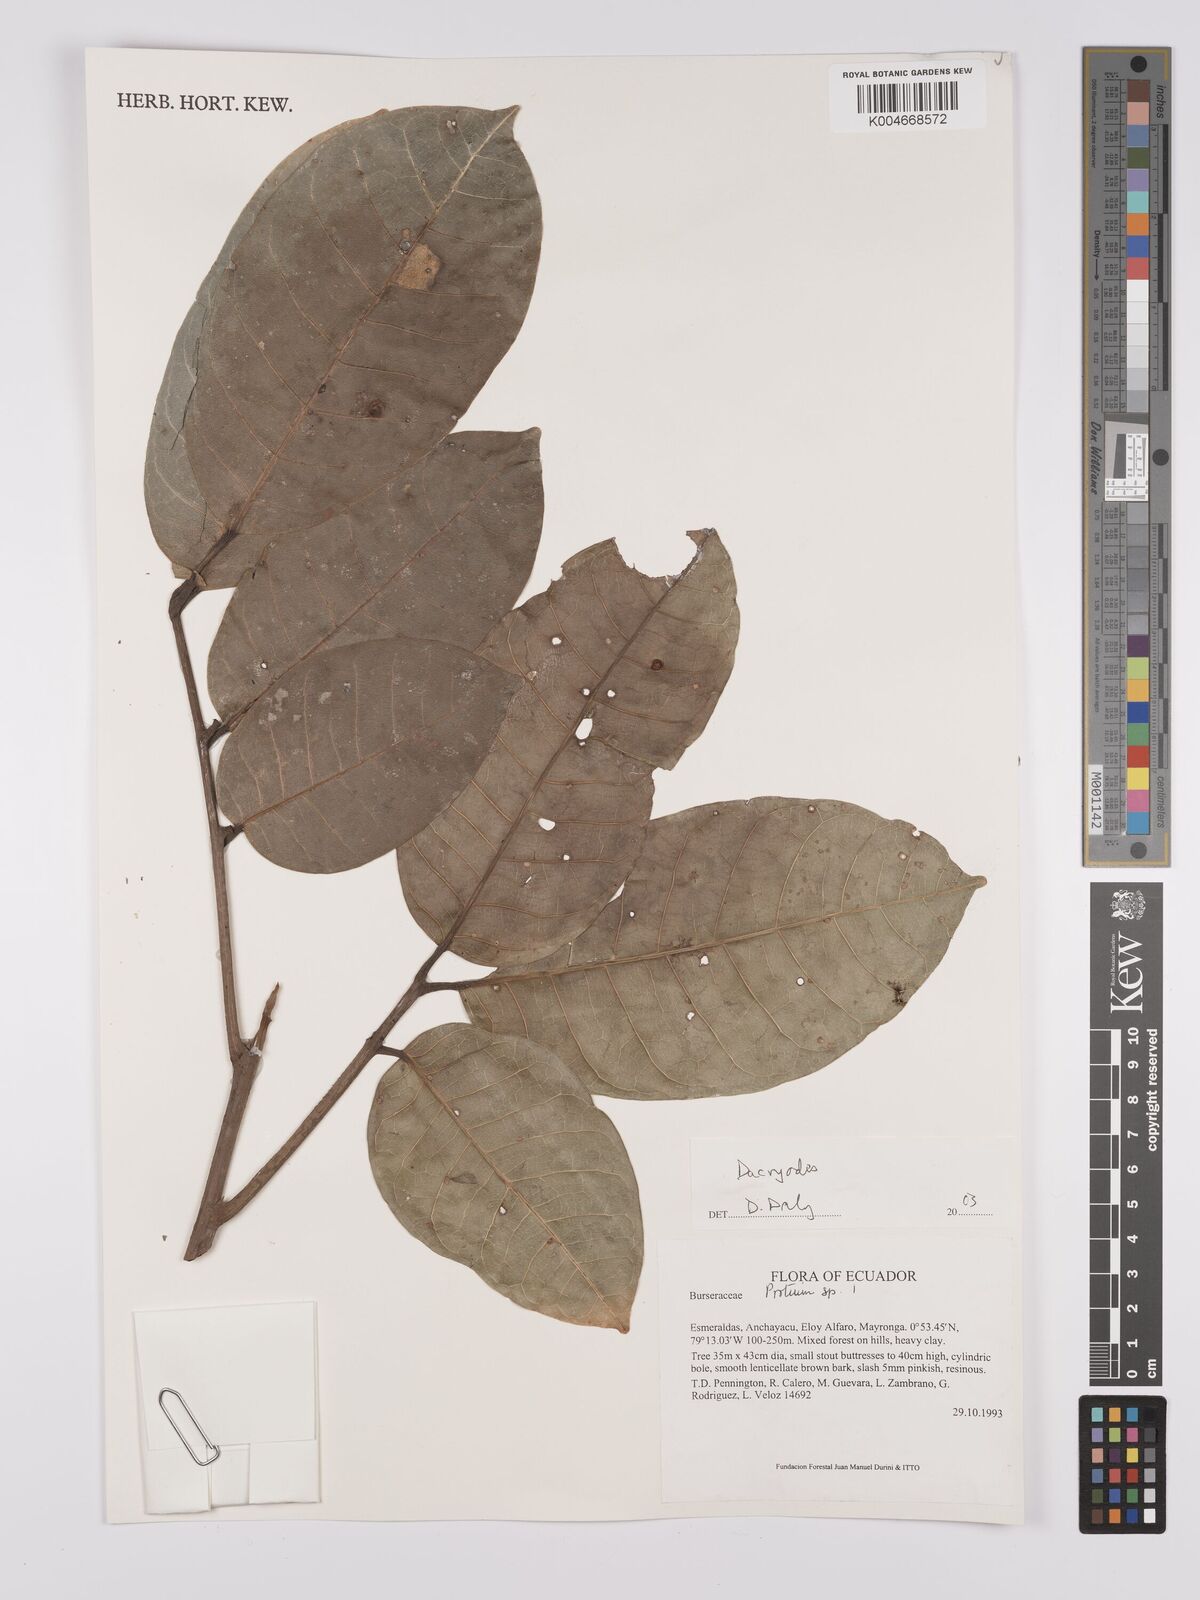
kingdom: Plantae
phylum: Tracheophyta
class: Magnoliopsida
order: Sapindales
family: Burseraceae
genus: Dacryodes
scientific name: Dacryodes
